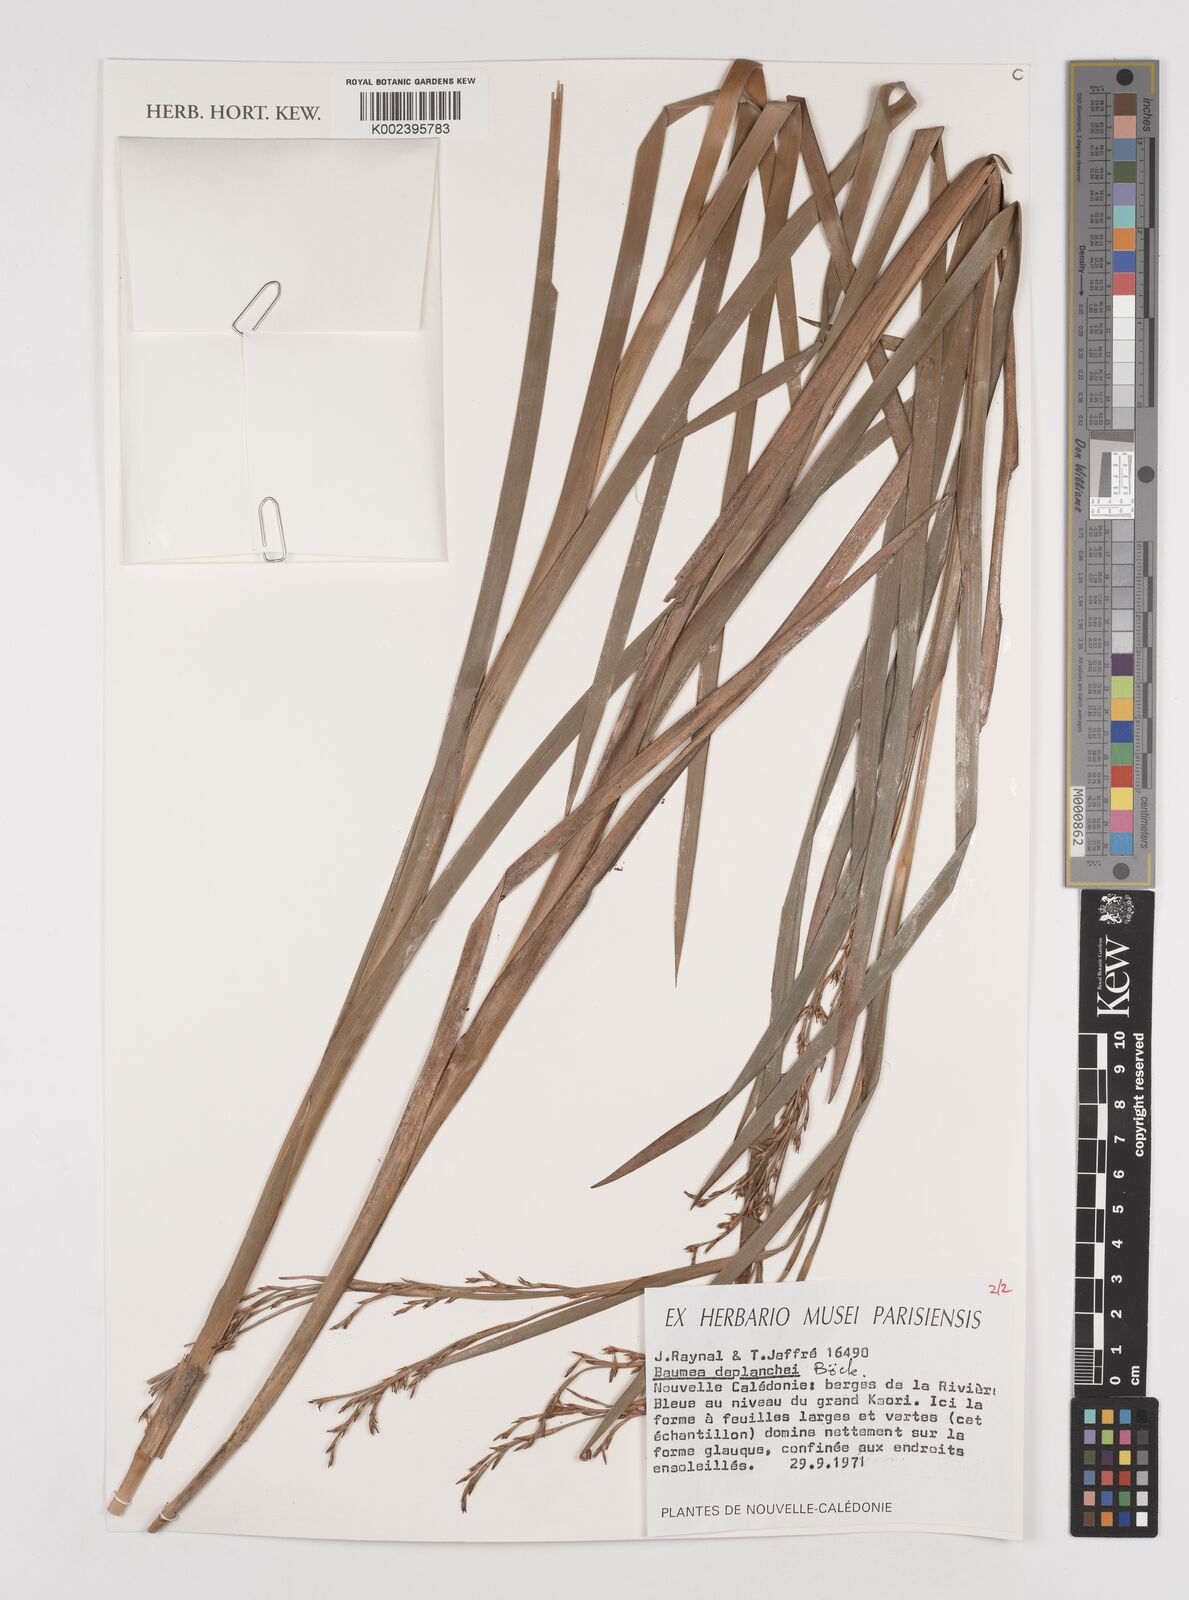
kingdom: Plantae
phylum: Tracheophyta
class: Liliopsida
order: Poales
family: Cyperaceae
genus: Machaerina
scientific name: Machaerina deplanchei
